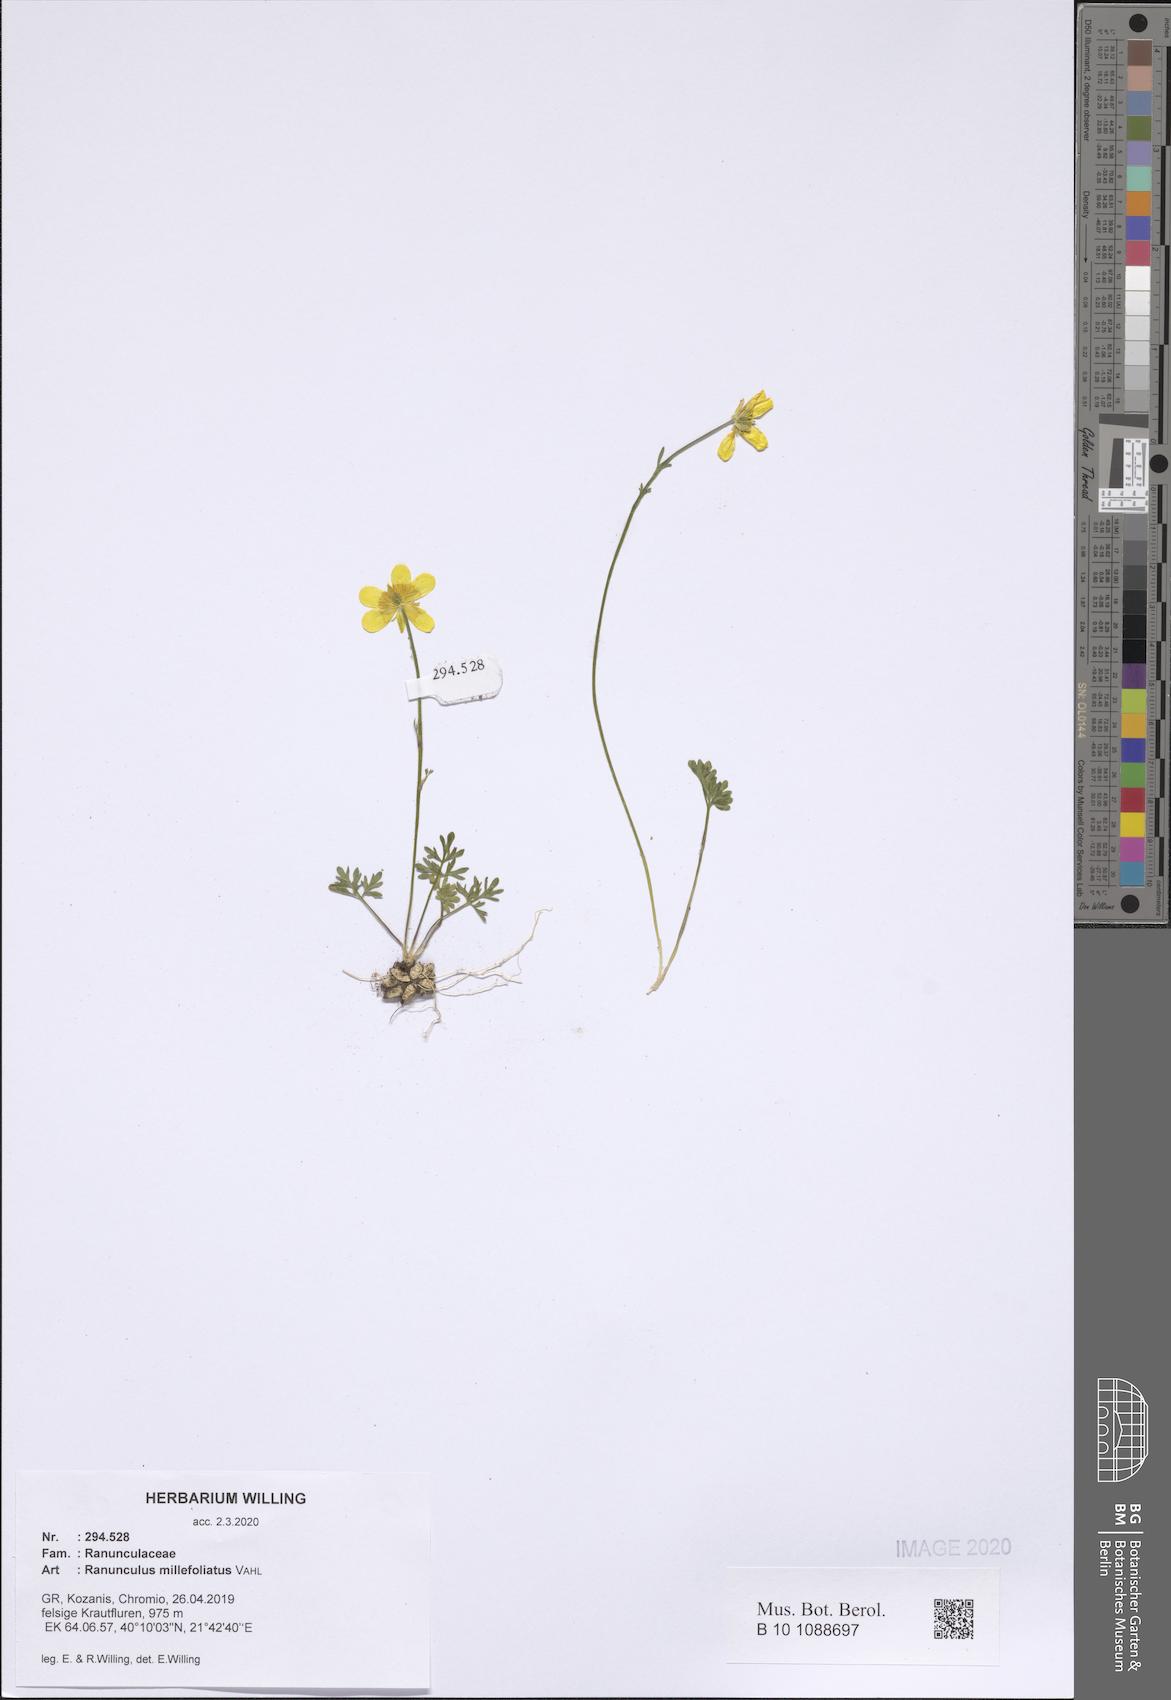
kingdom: Plantae
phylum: Tracheophyta
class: Magnoliopsida
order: Ranunculales
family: Ranunculaceae
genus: Ranunculus
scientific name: Ranunculus millefoliatus
